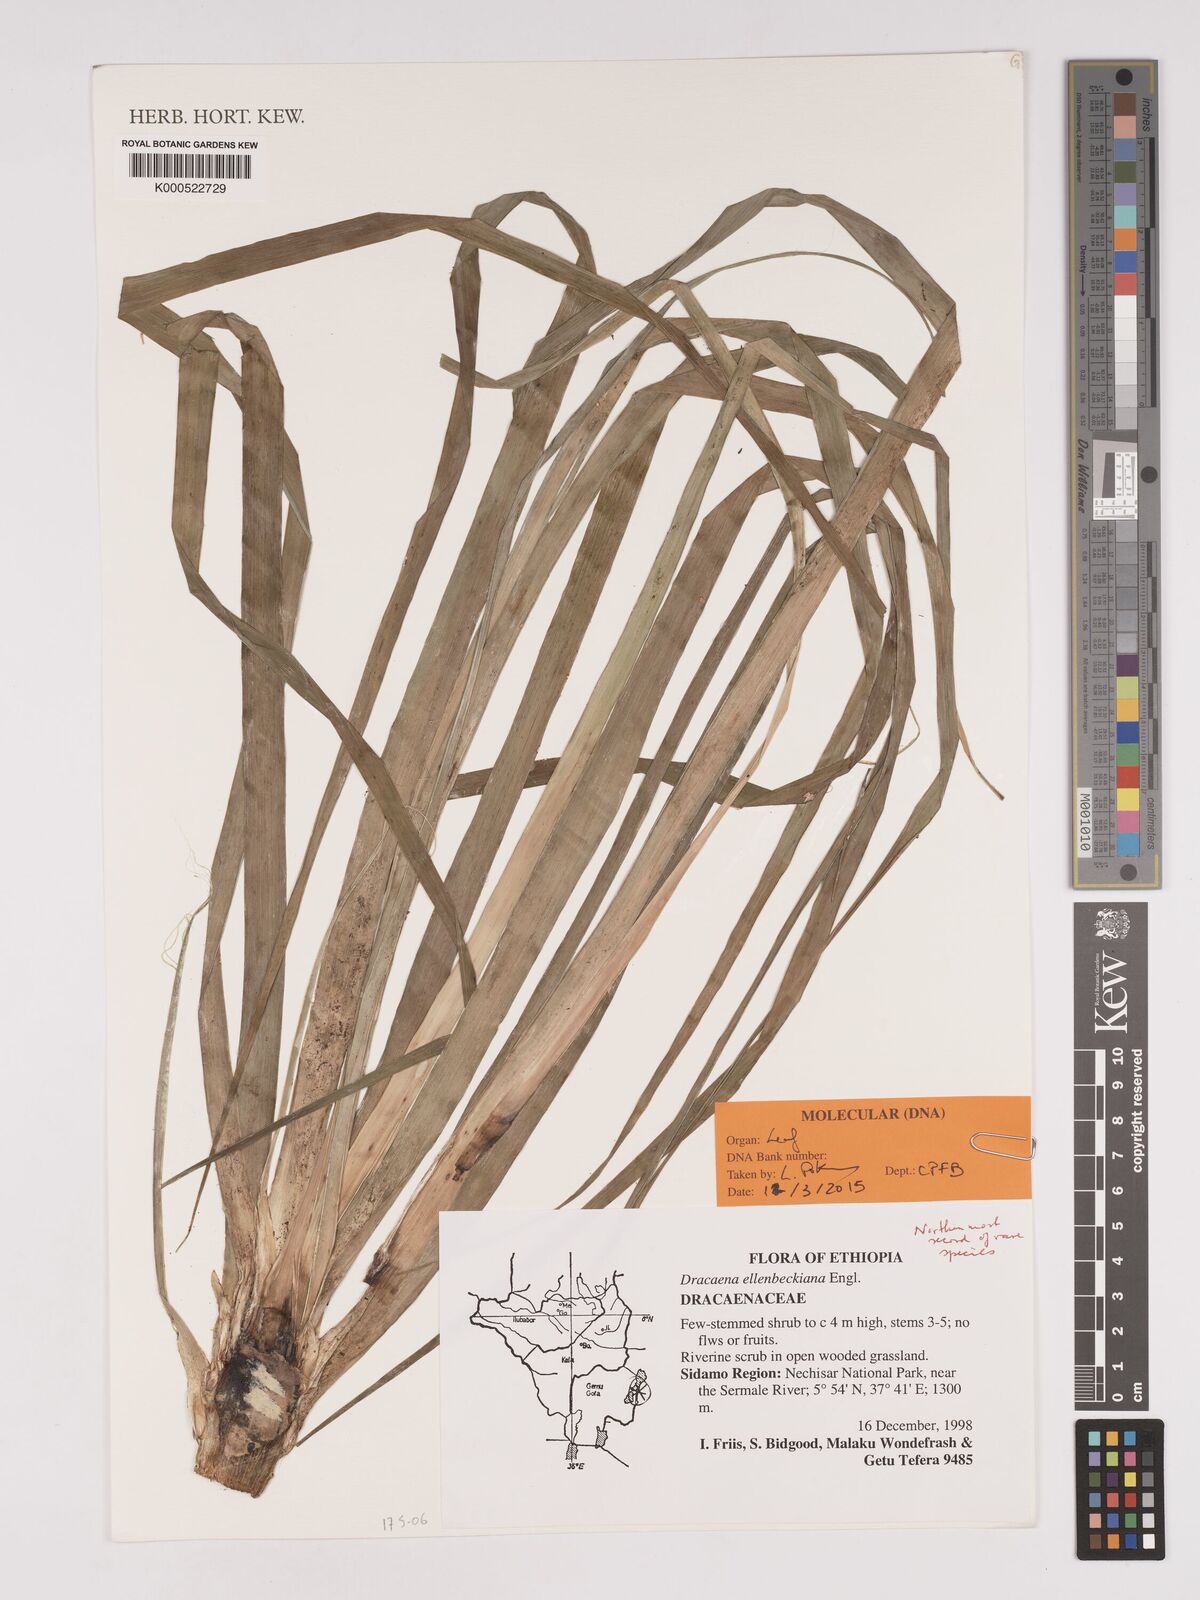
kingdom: Plantae
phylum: Tracheophyta
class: Liliopsida
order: Asparagales
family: Asparagaceae
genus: Dracaena
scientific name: Dracaena elliptica
